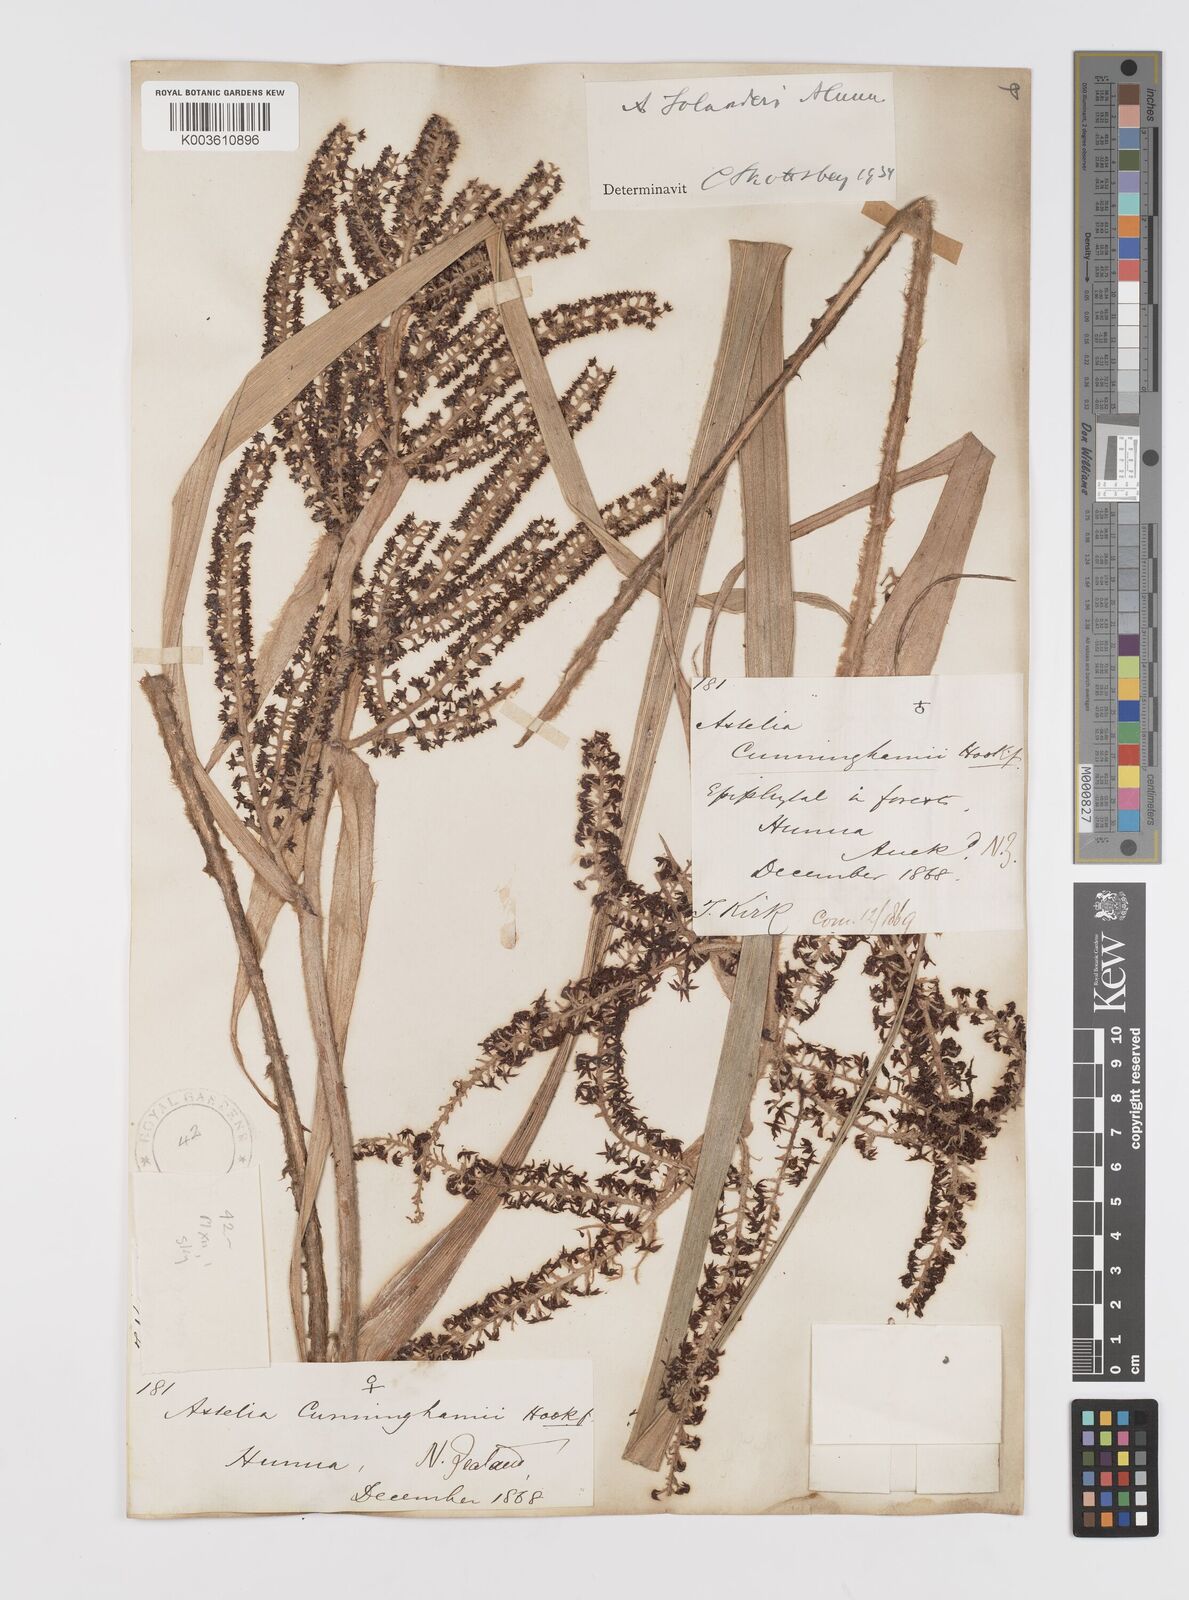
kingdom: Plantae
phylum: Tracheophyta
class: Liliopsida
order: Asparagales
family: Asteliaceae
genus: Astelia
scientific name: Astelia solandri
